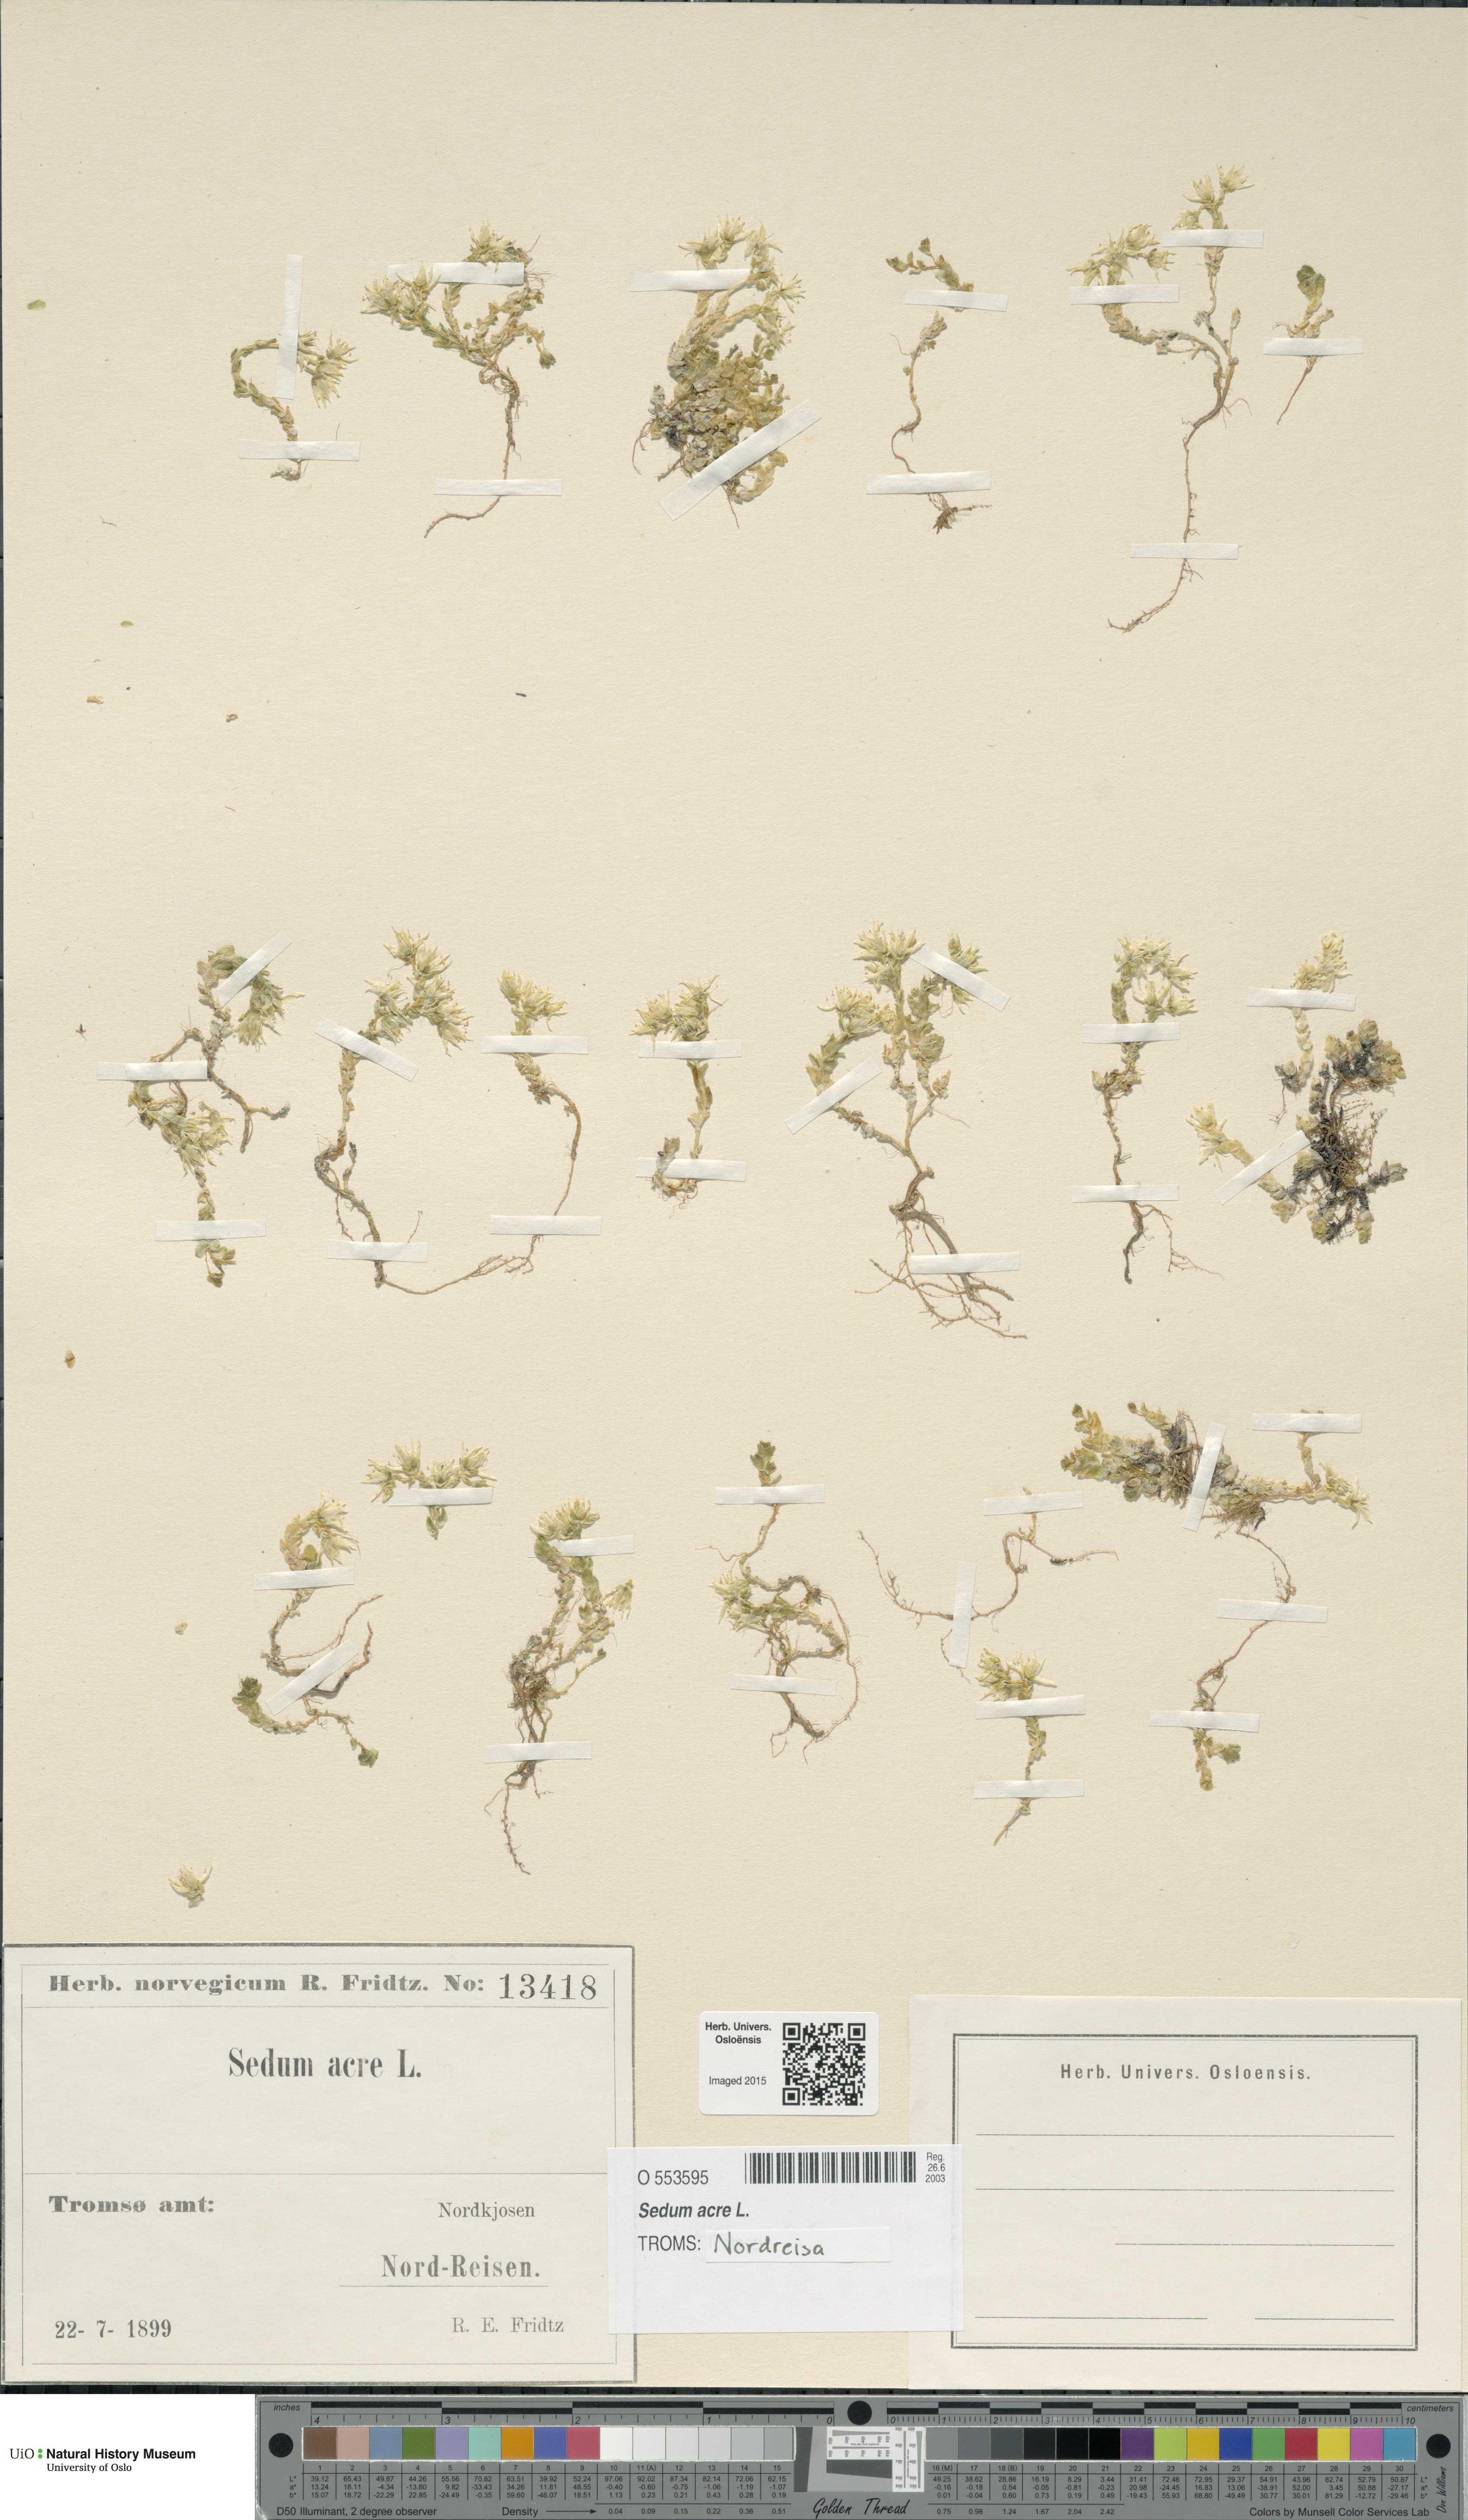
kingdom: Plantae
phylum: Tracheophyta
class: Magnoliopsida
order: Saxifragales
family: Crassulaceae
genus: Sedum
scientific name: Sedum acre
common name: Biting stonecrop
